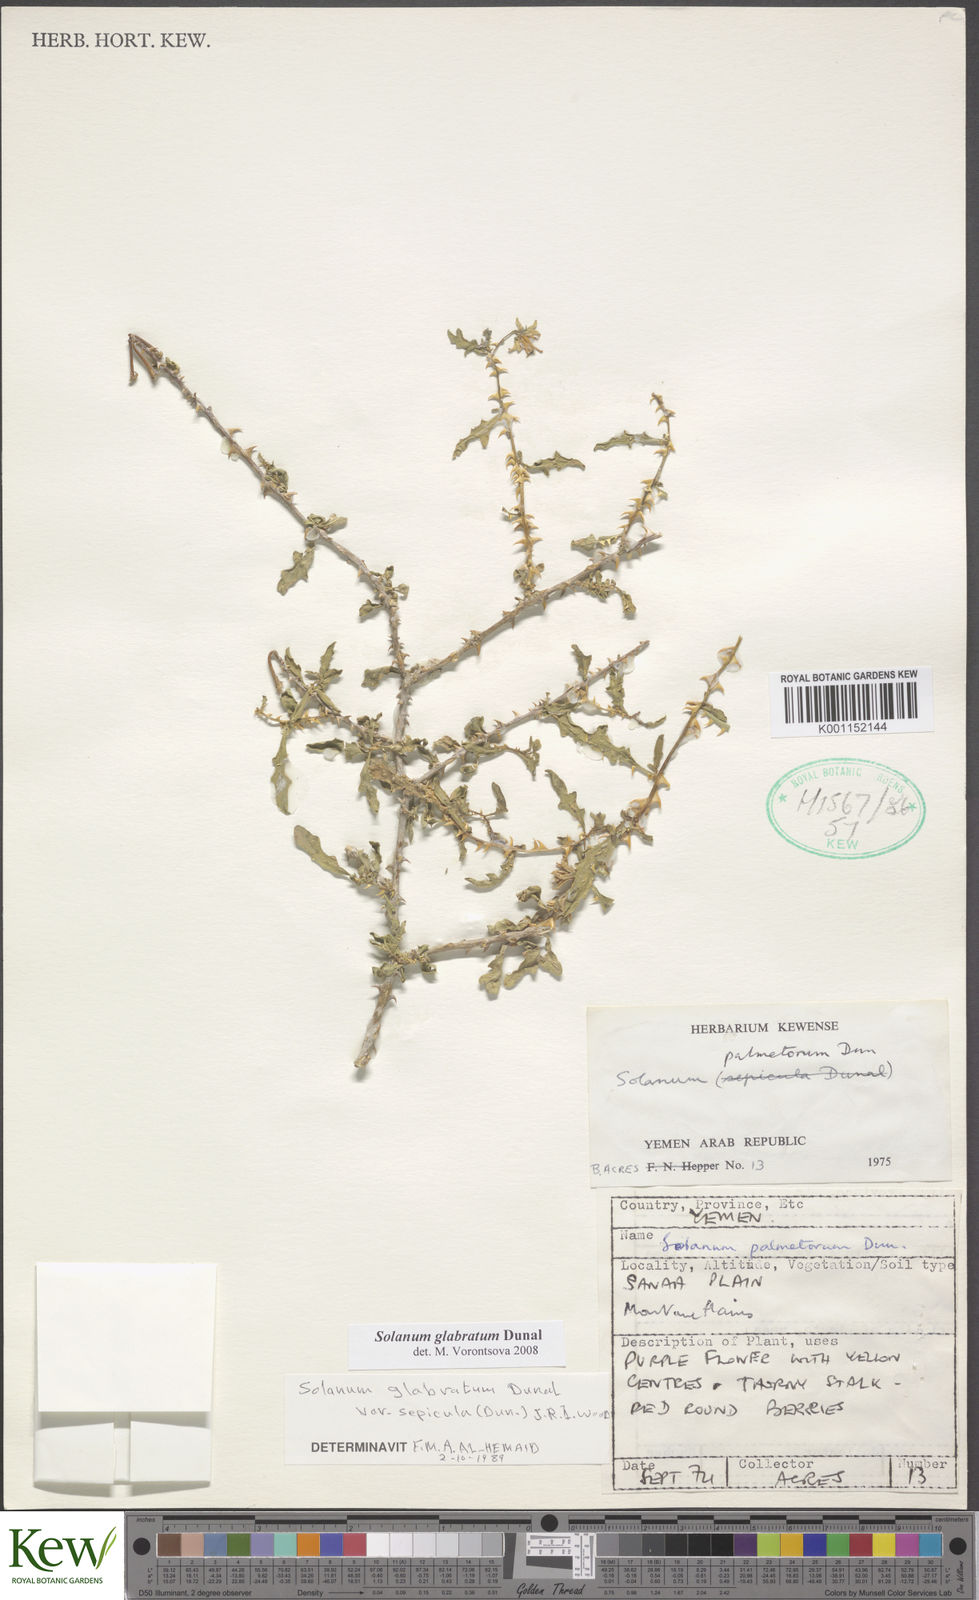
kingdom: Plantae
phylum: Tracheophyta
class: Magnoliopsida
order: Solanales
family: Solanaceae
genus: Solanum
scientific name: Solanum glabratum
